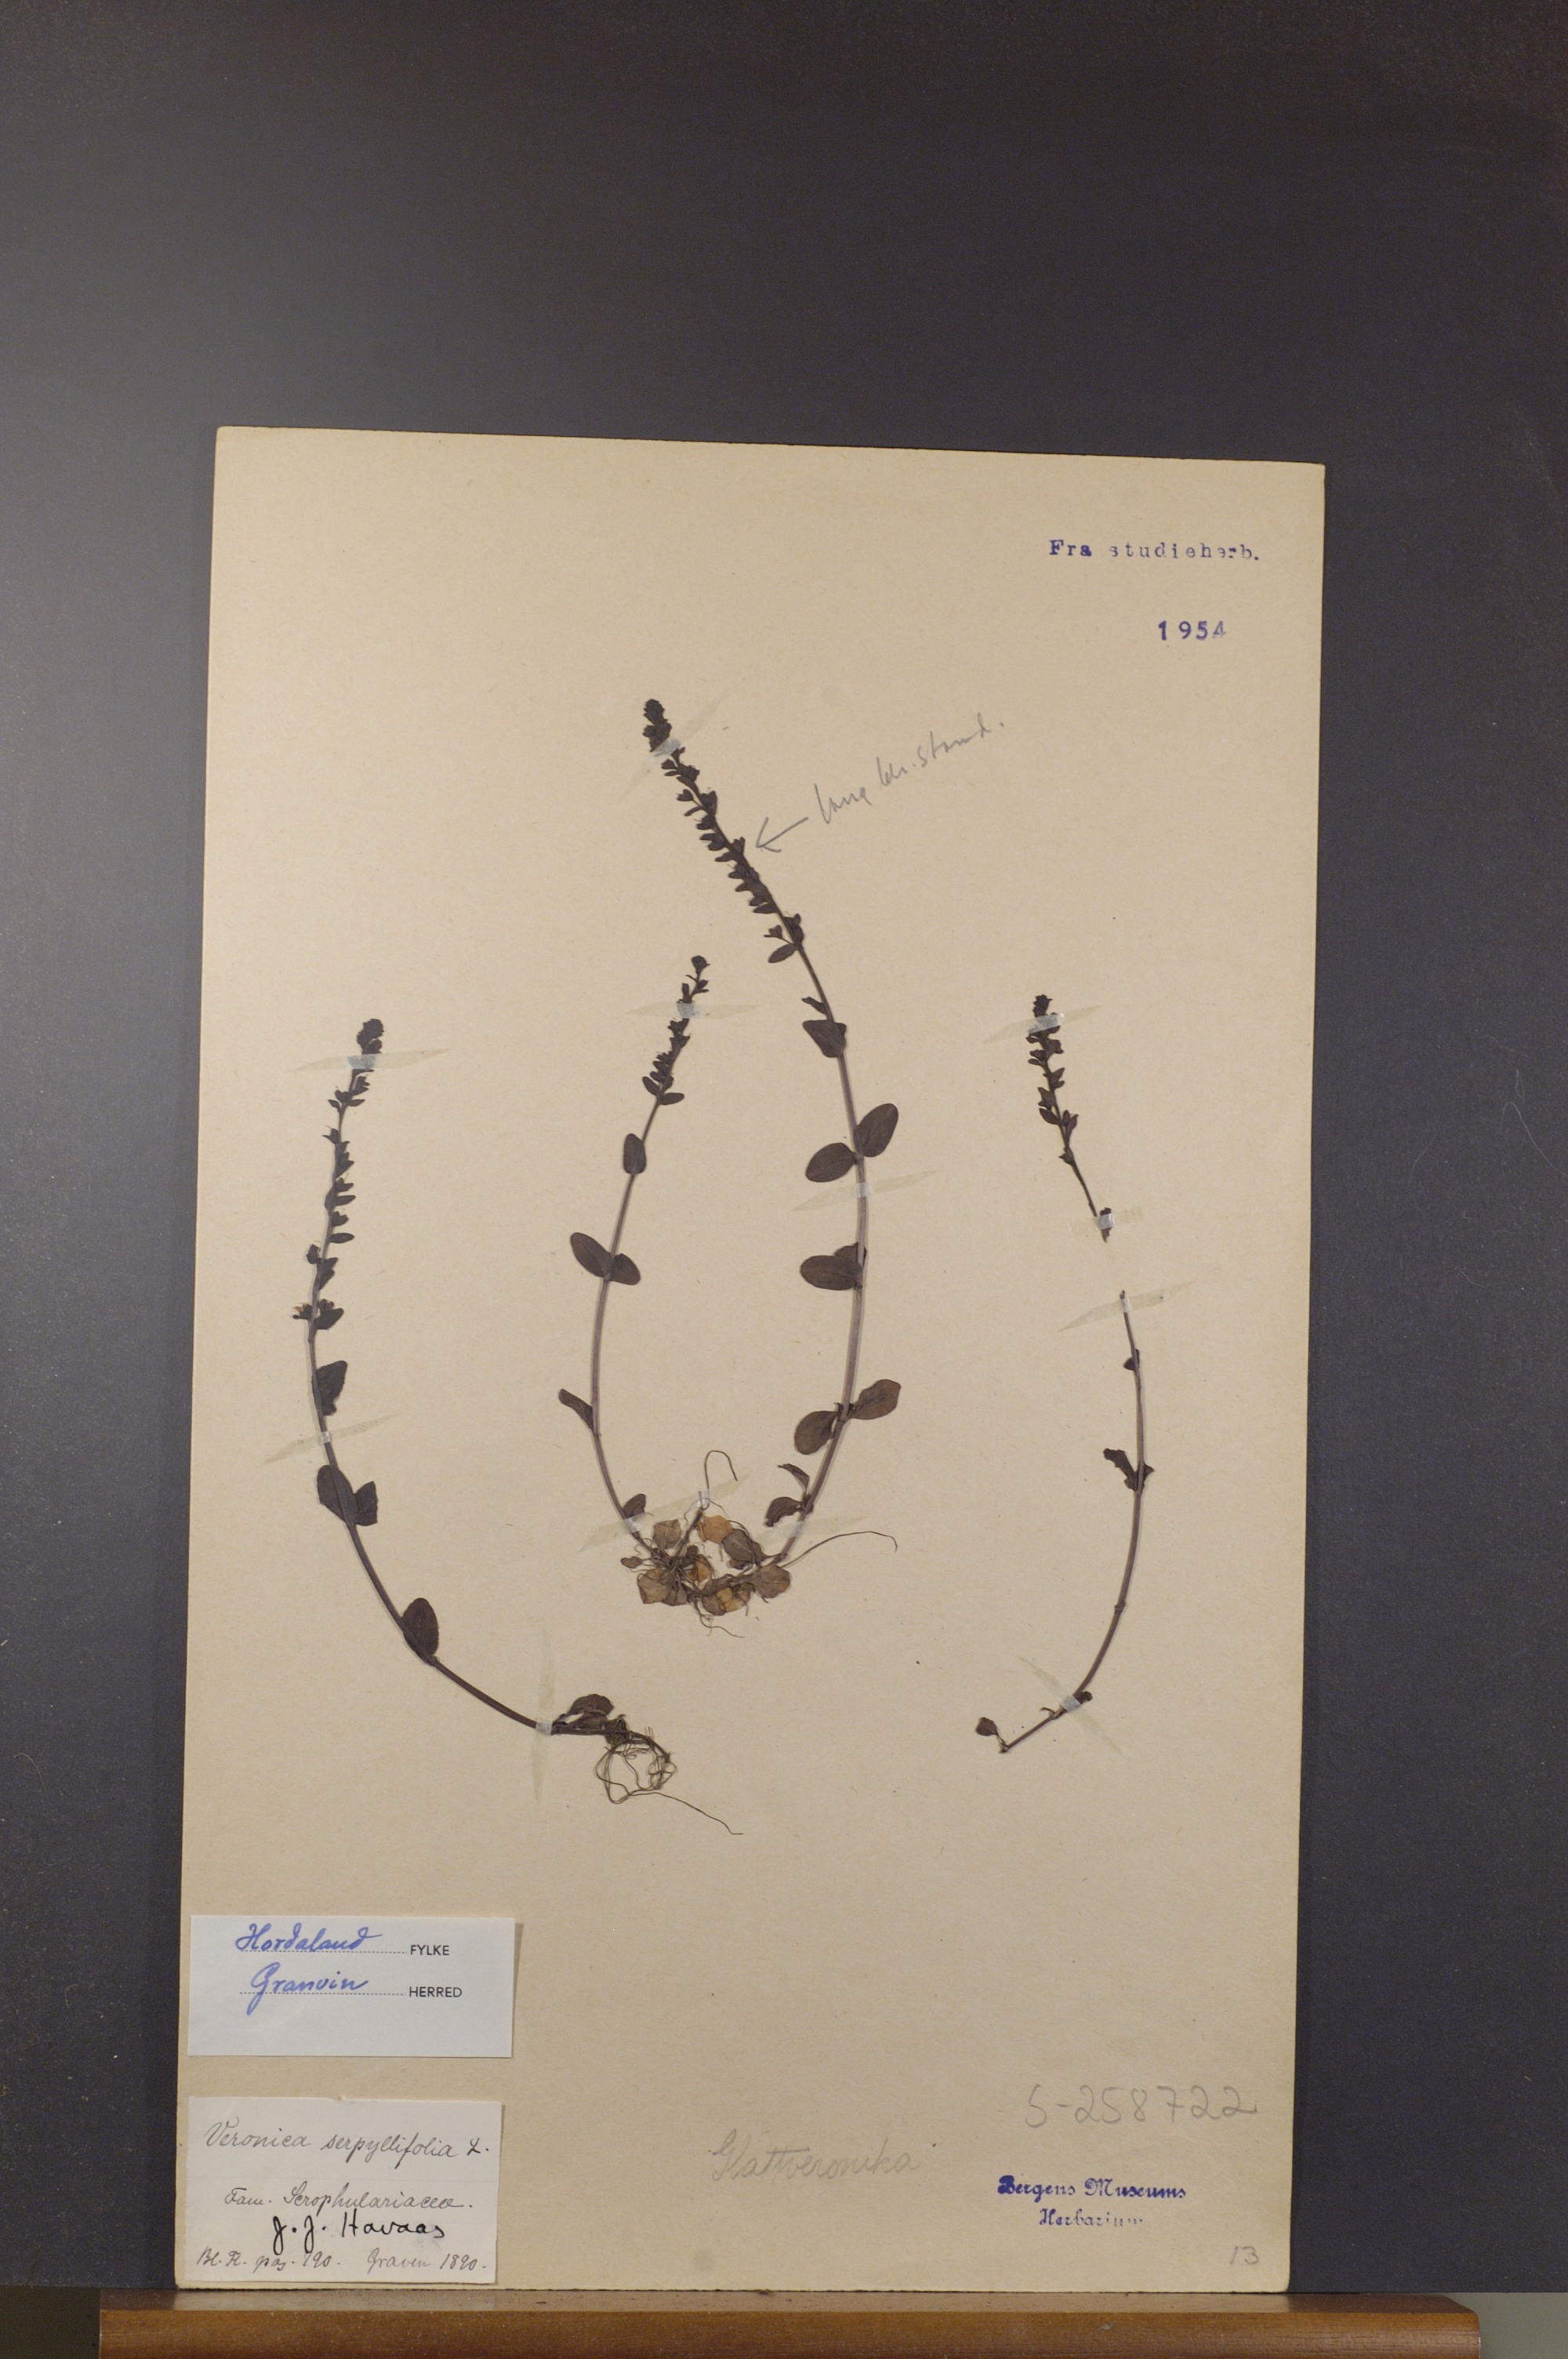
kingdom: Plantae
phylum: Tracheophyta
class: Magnoliopsida
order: Lamiales
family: Plantaginaceae
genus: Veronica
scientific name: Veronica serpyllifolia
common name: Thyme-leaved speedwell
